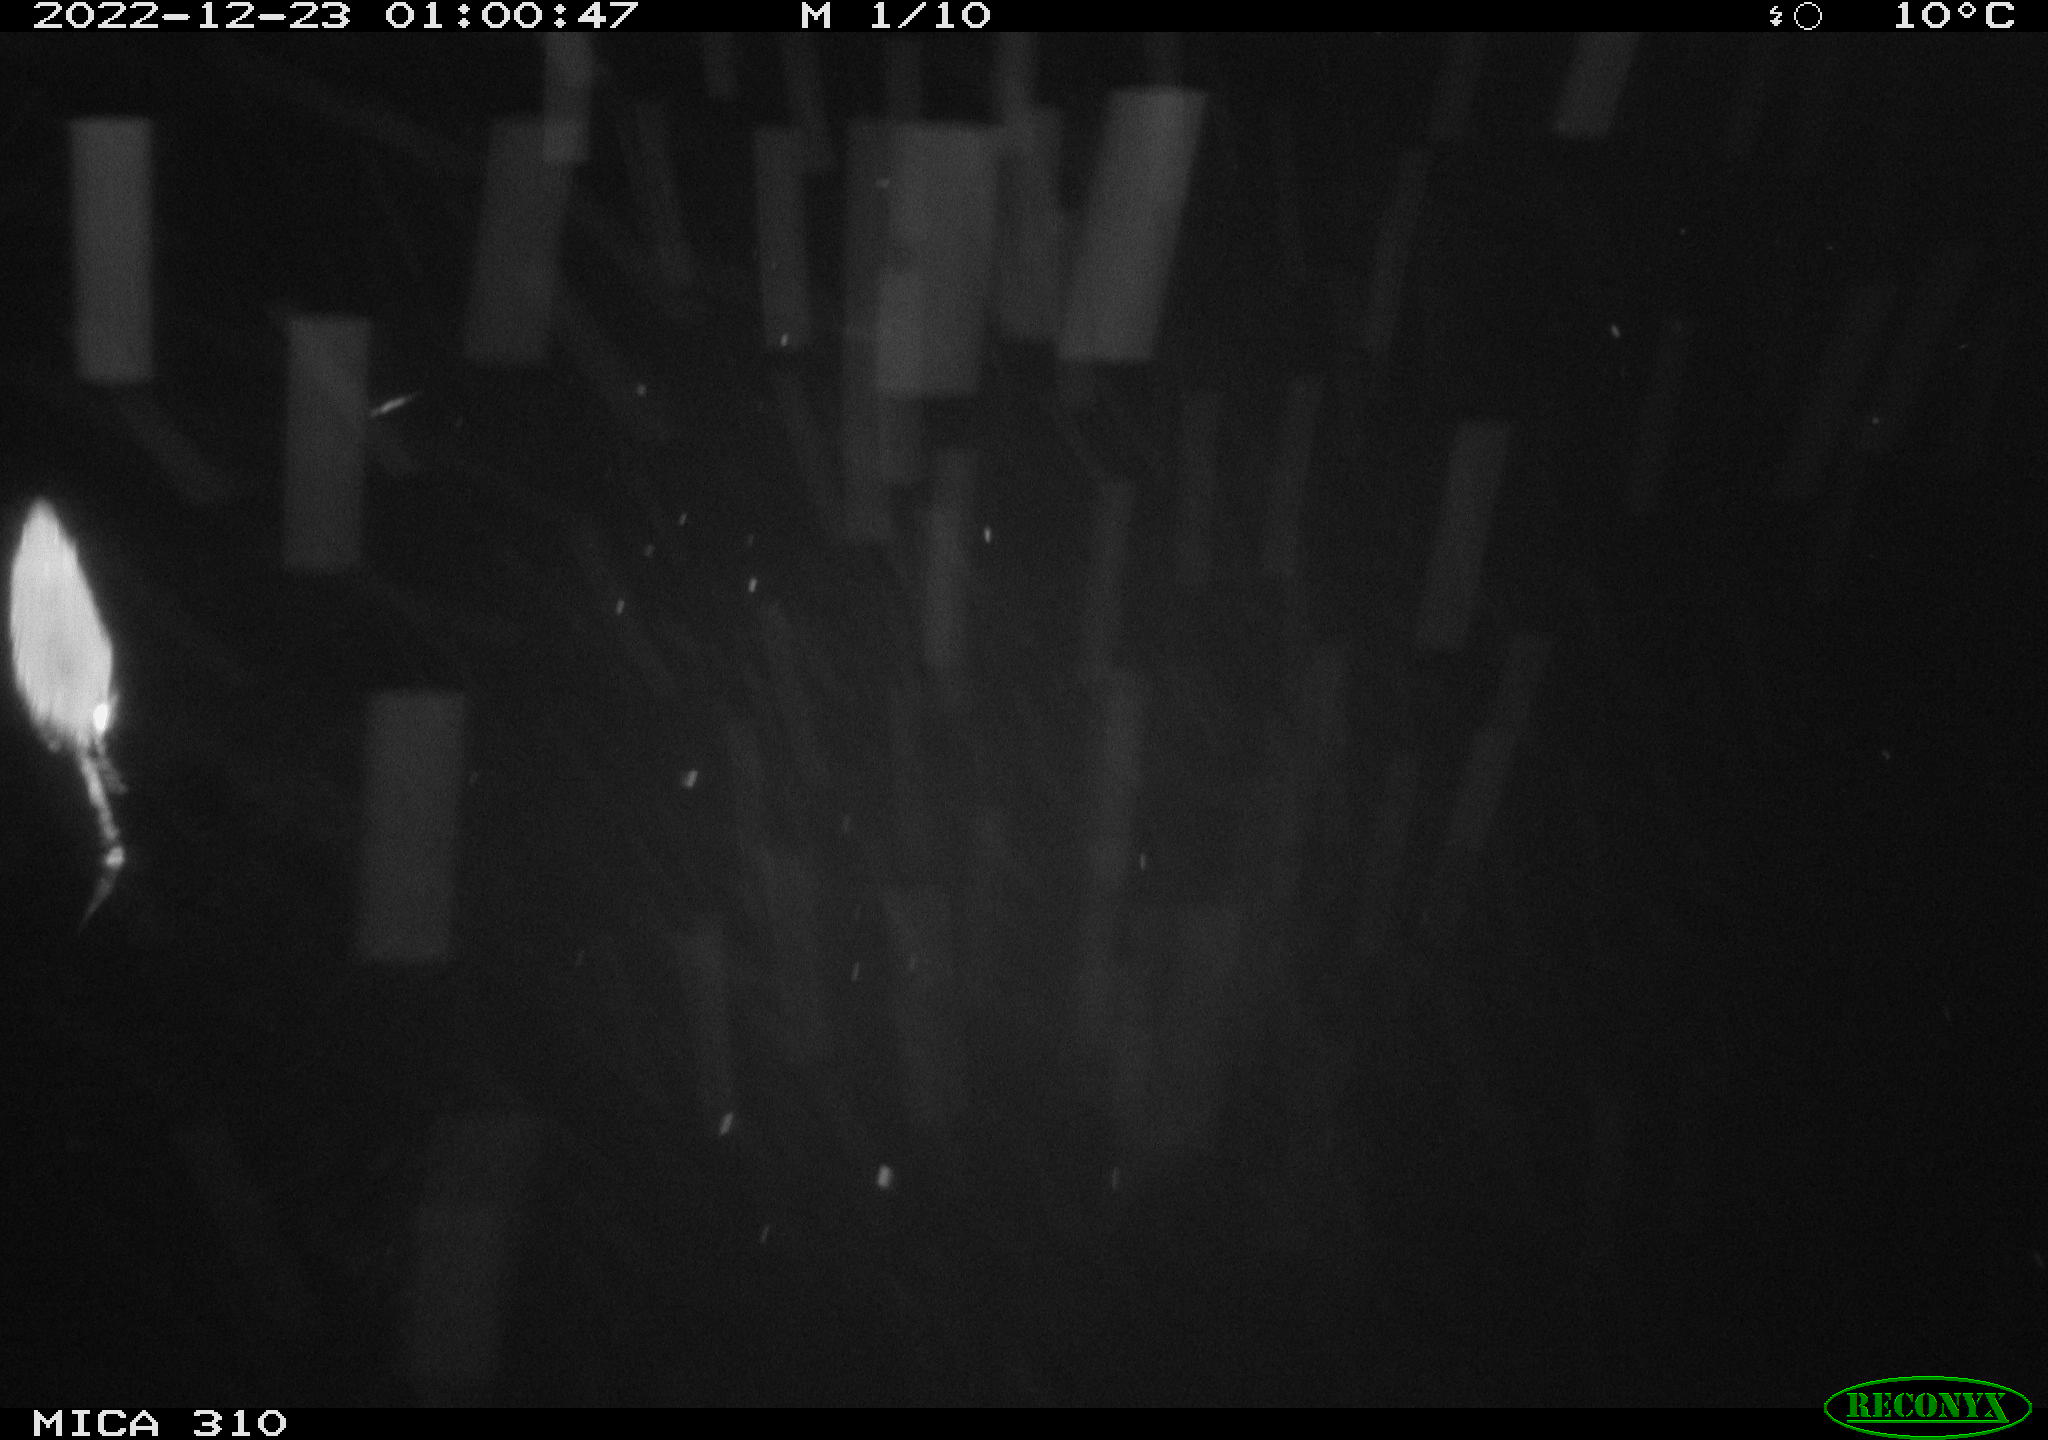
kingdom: Animalia
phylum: Chordata
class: Mammalia
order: Rodentia
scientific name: Rodentia
